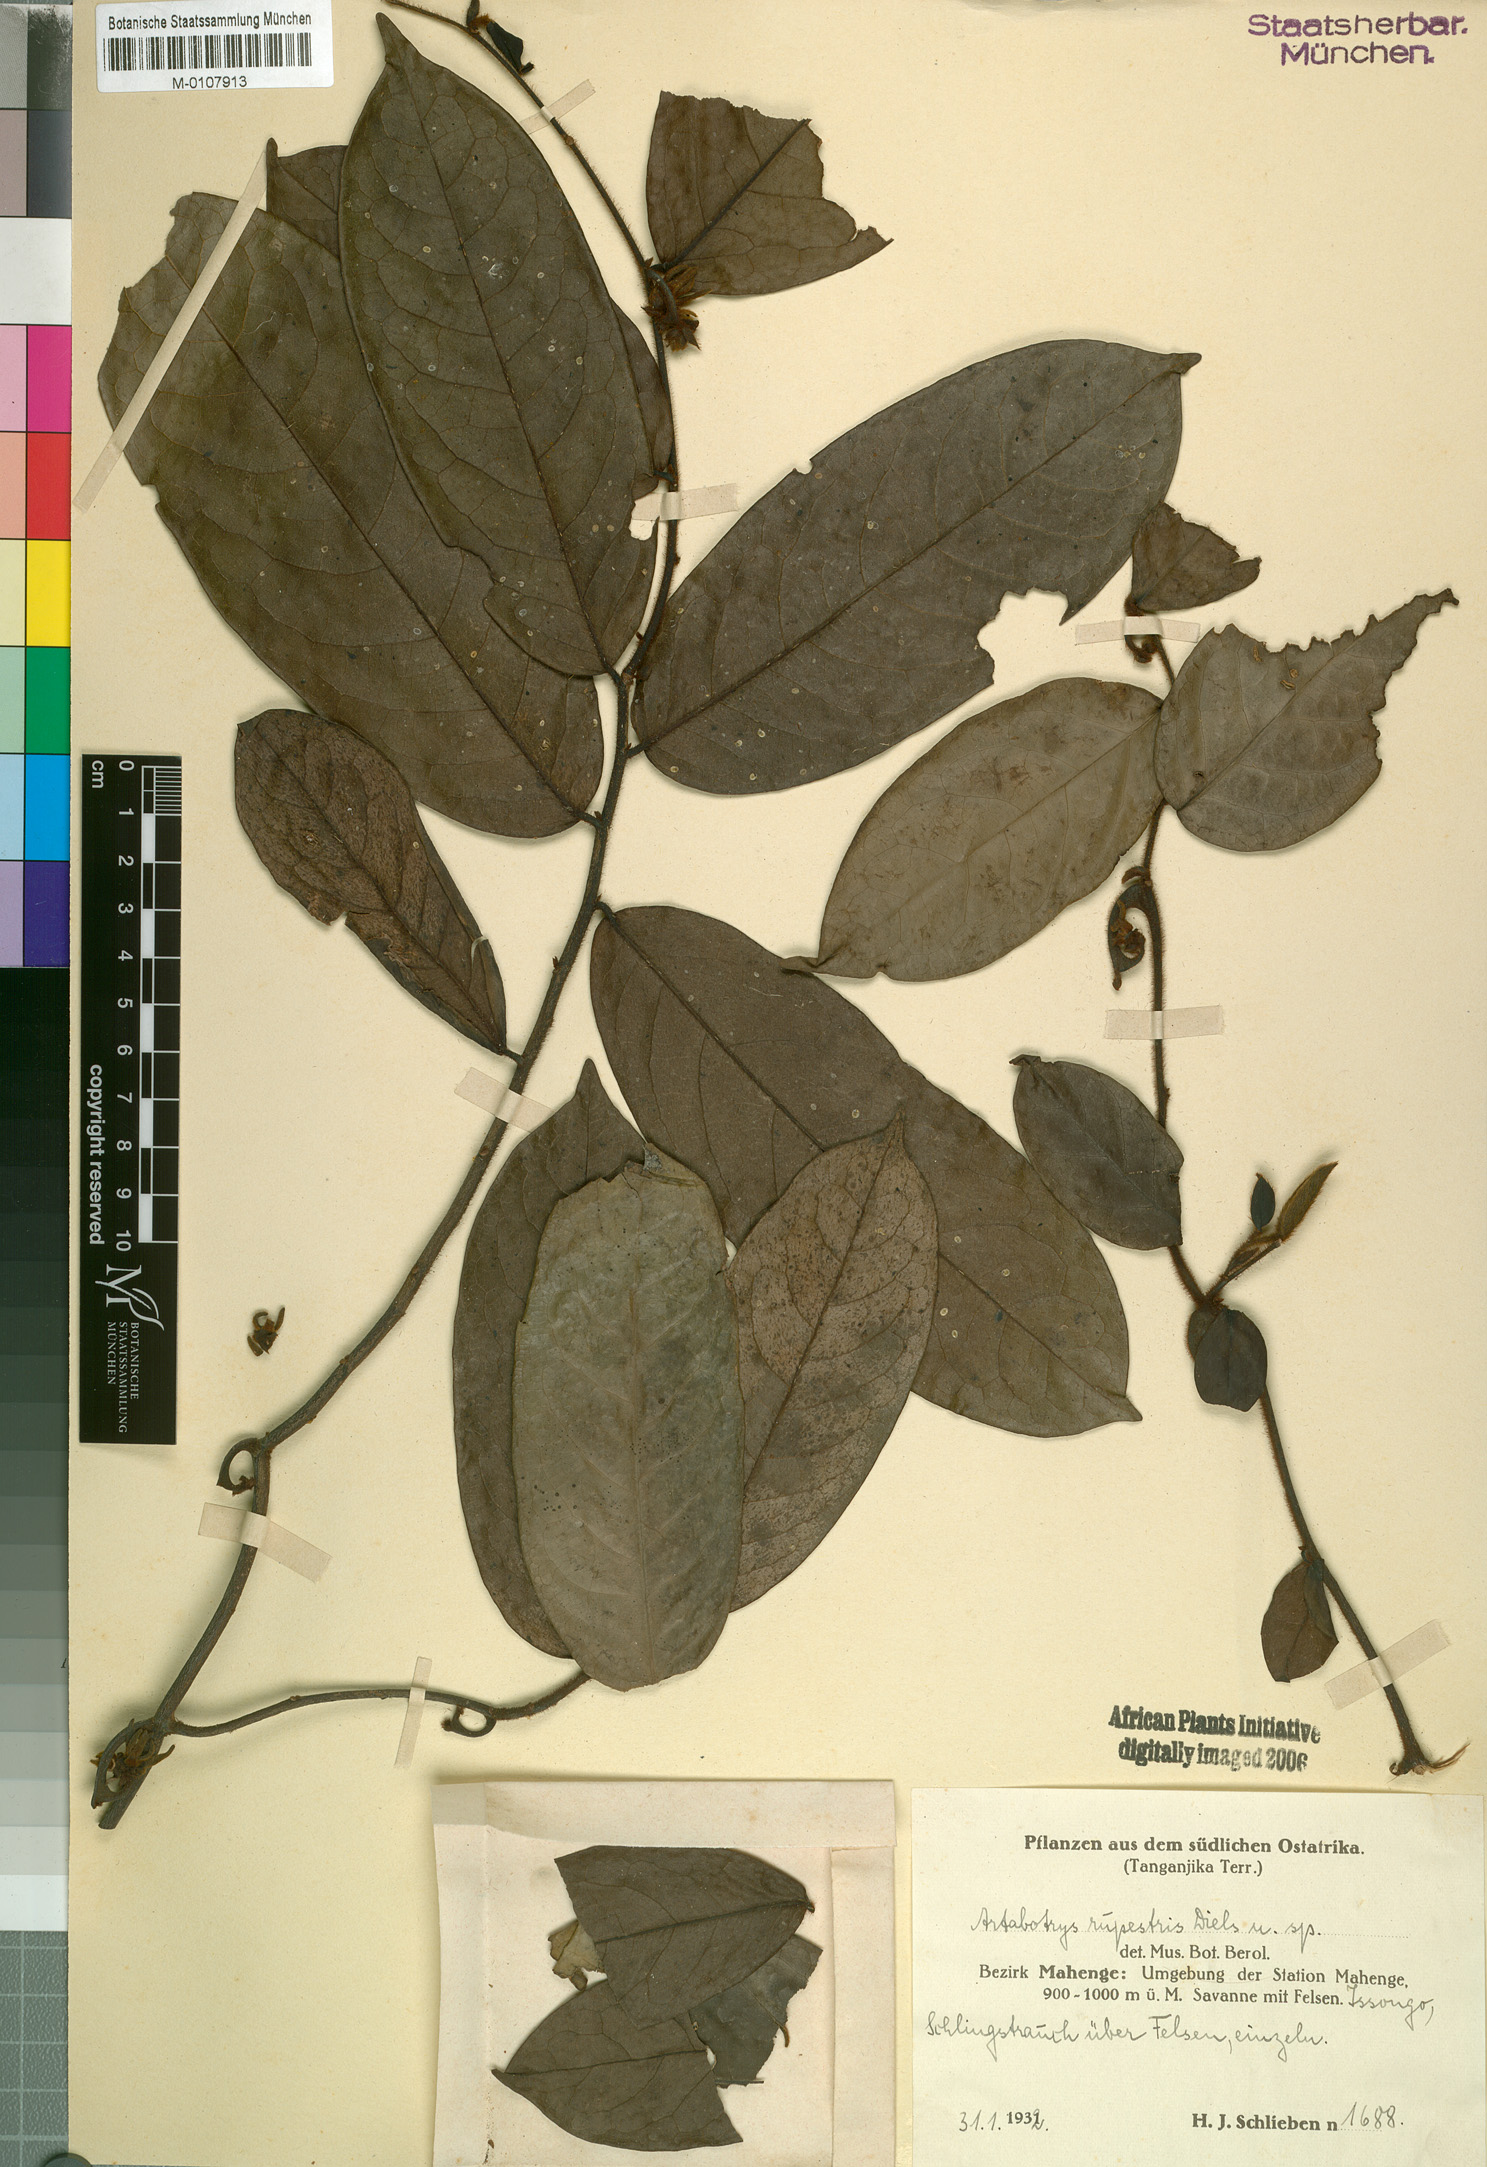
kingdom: Plantae
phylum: Tracheophyta
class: Magnoliopsida
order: Magnoliales
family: Annonaceae
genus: Artabotrys
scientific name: Artabotrys rupestris
